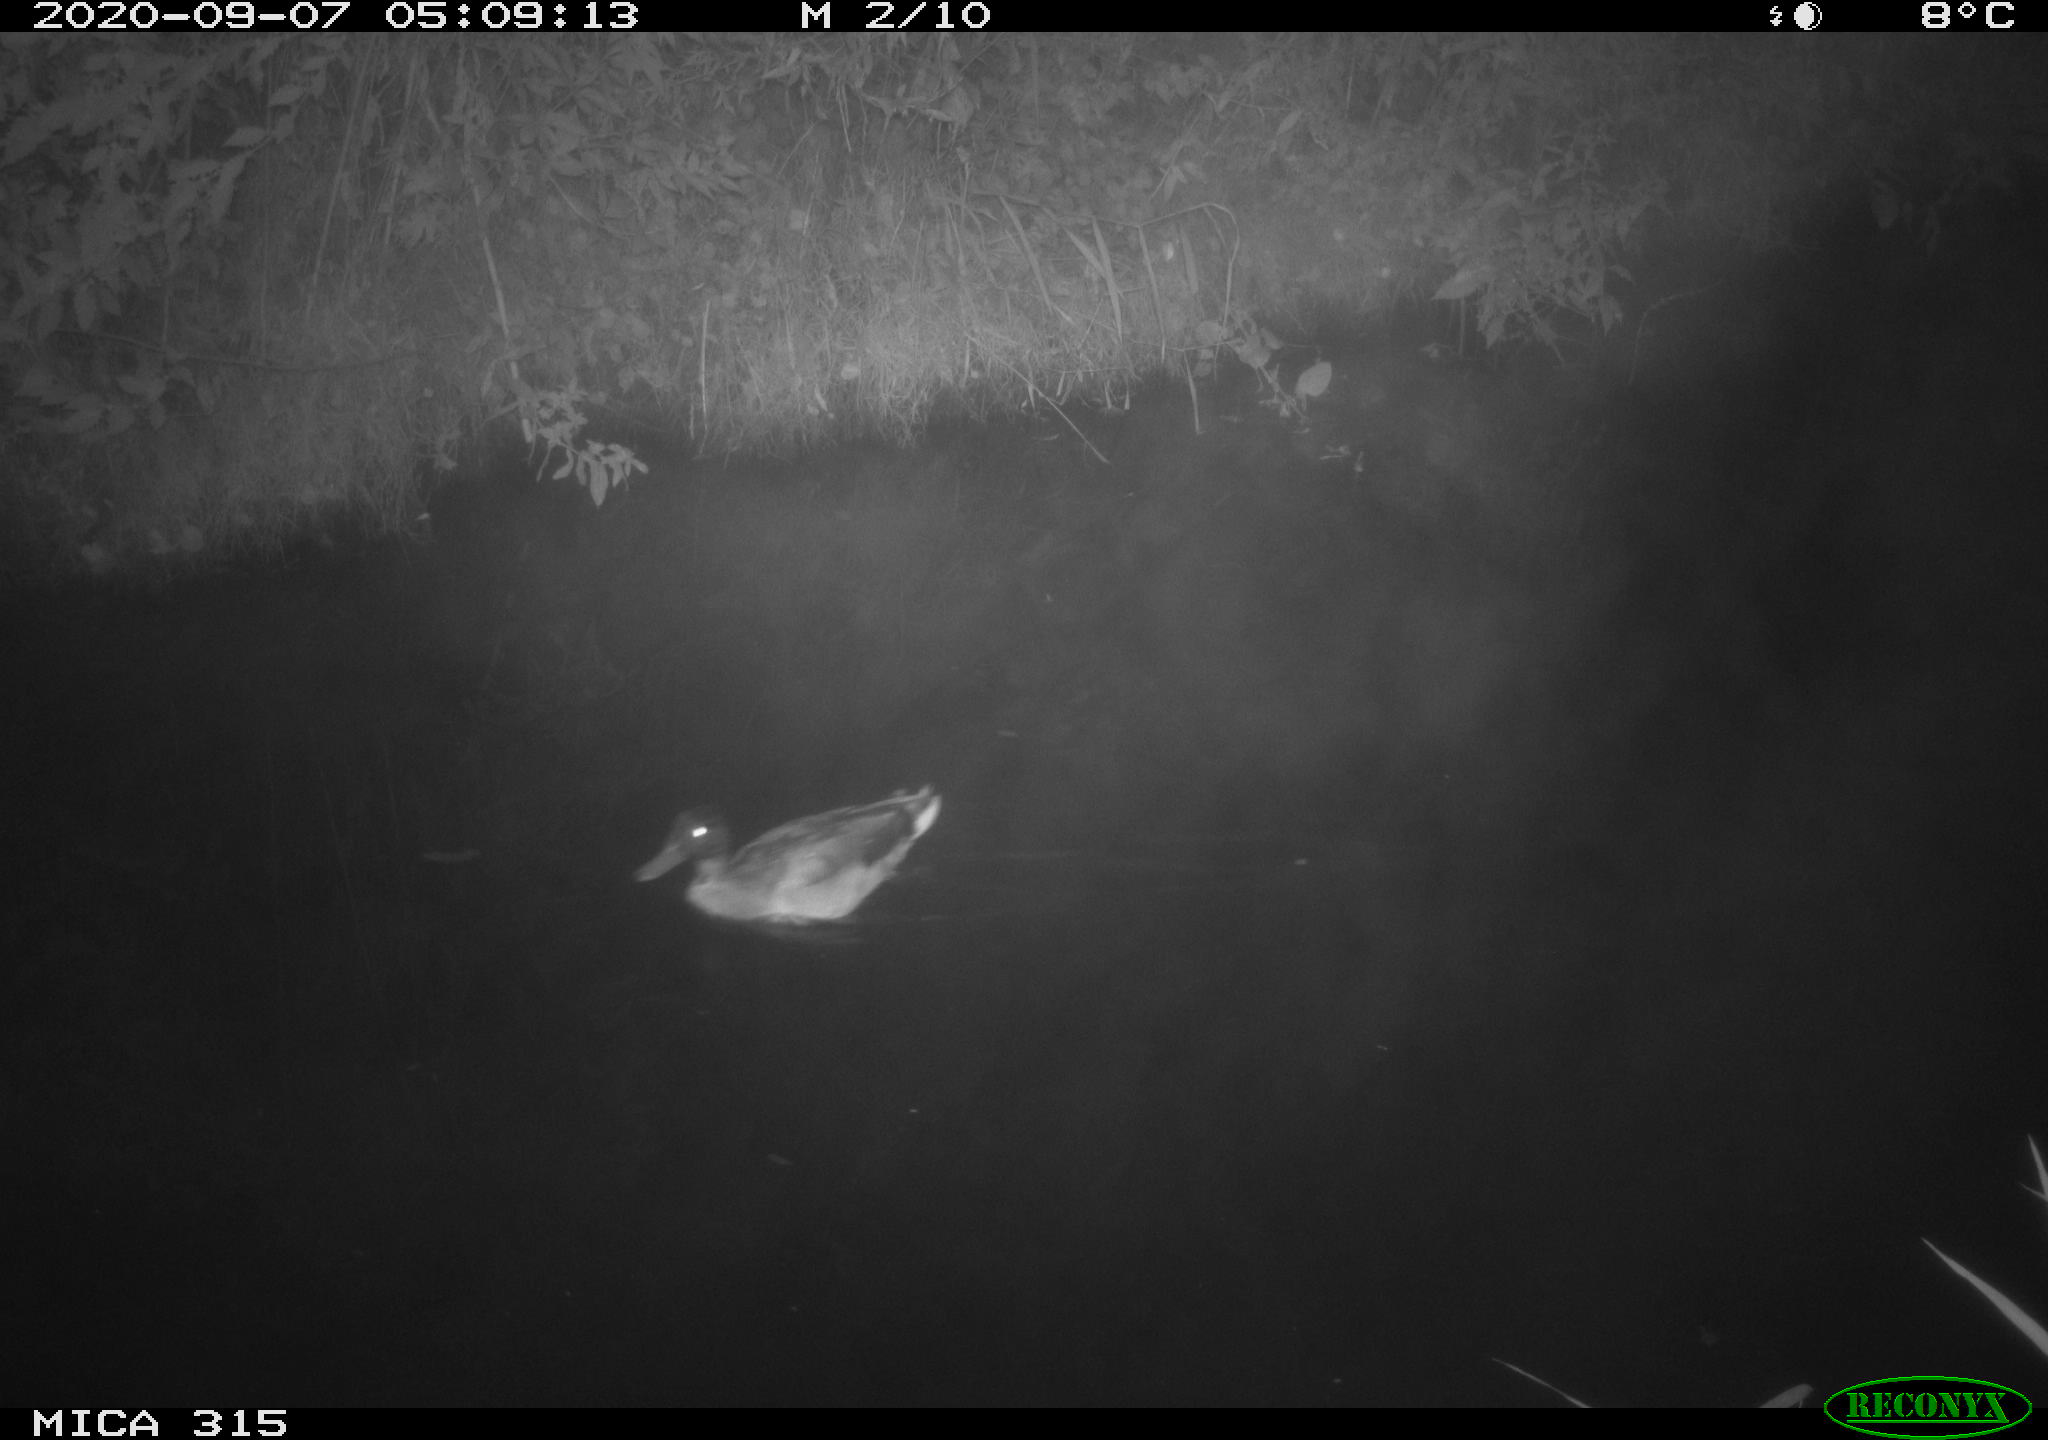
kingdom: Animalia
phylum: Chordata
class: Aves
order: Anseriformes
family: Anatidae
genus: Anas
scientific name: Anas platyrhynchos
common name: Mallard
